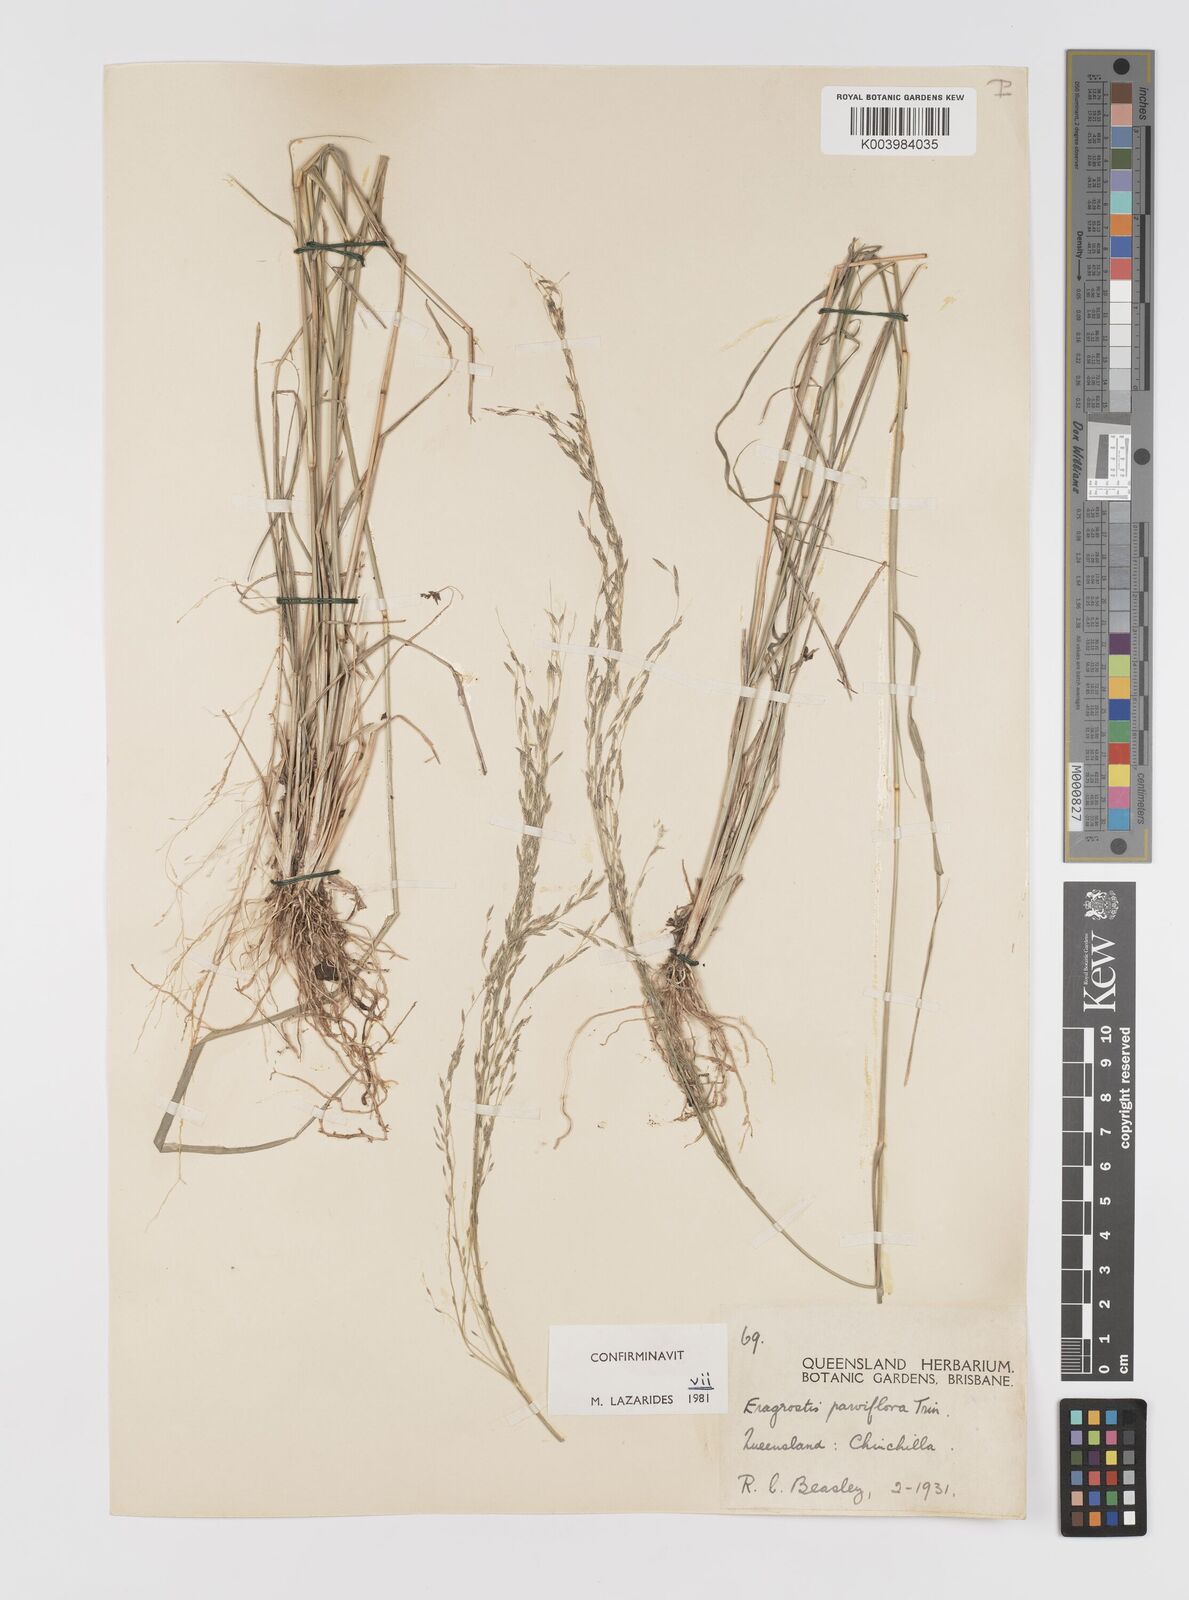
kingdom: Plantae
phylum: Tracheophyta
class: Liliopsida
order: Poales
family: Poaceae
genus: Eragrostis
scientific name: Eragrostis parviflora
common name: Weeping love-grass
